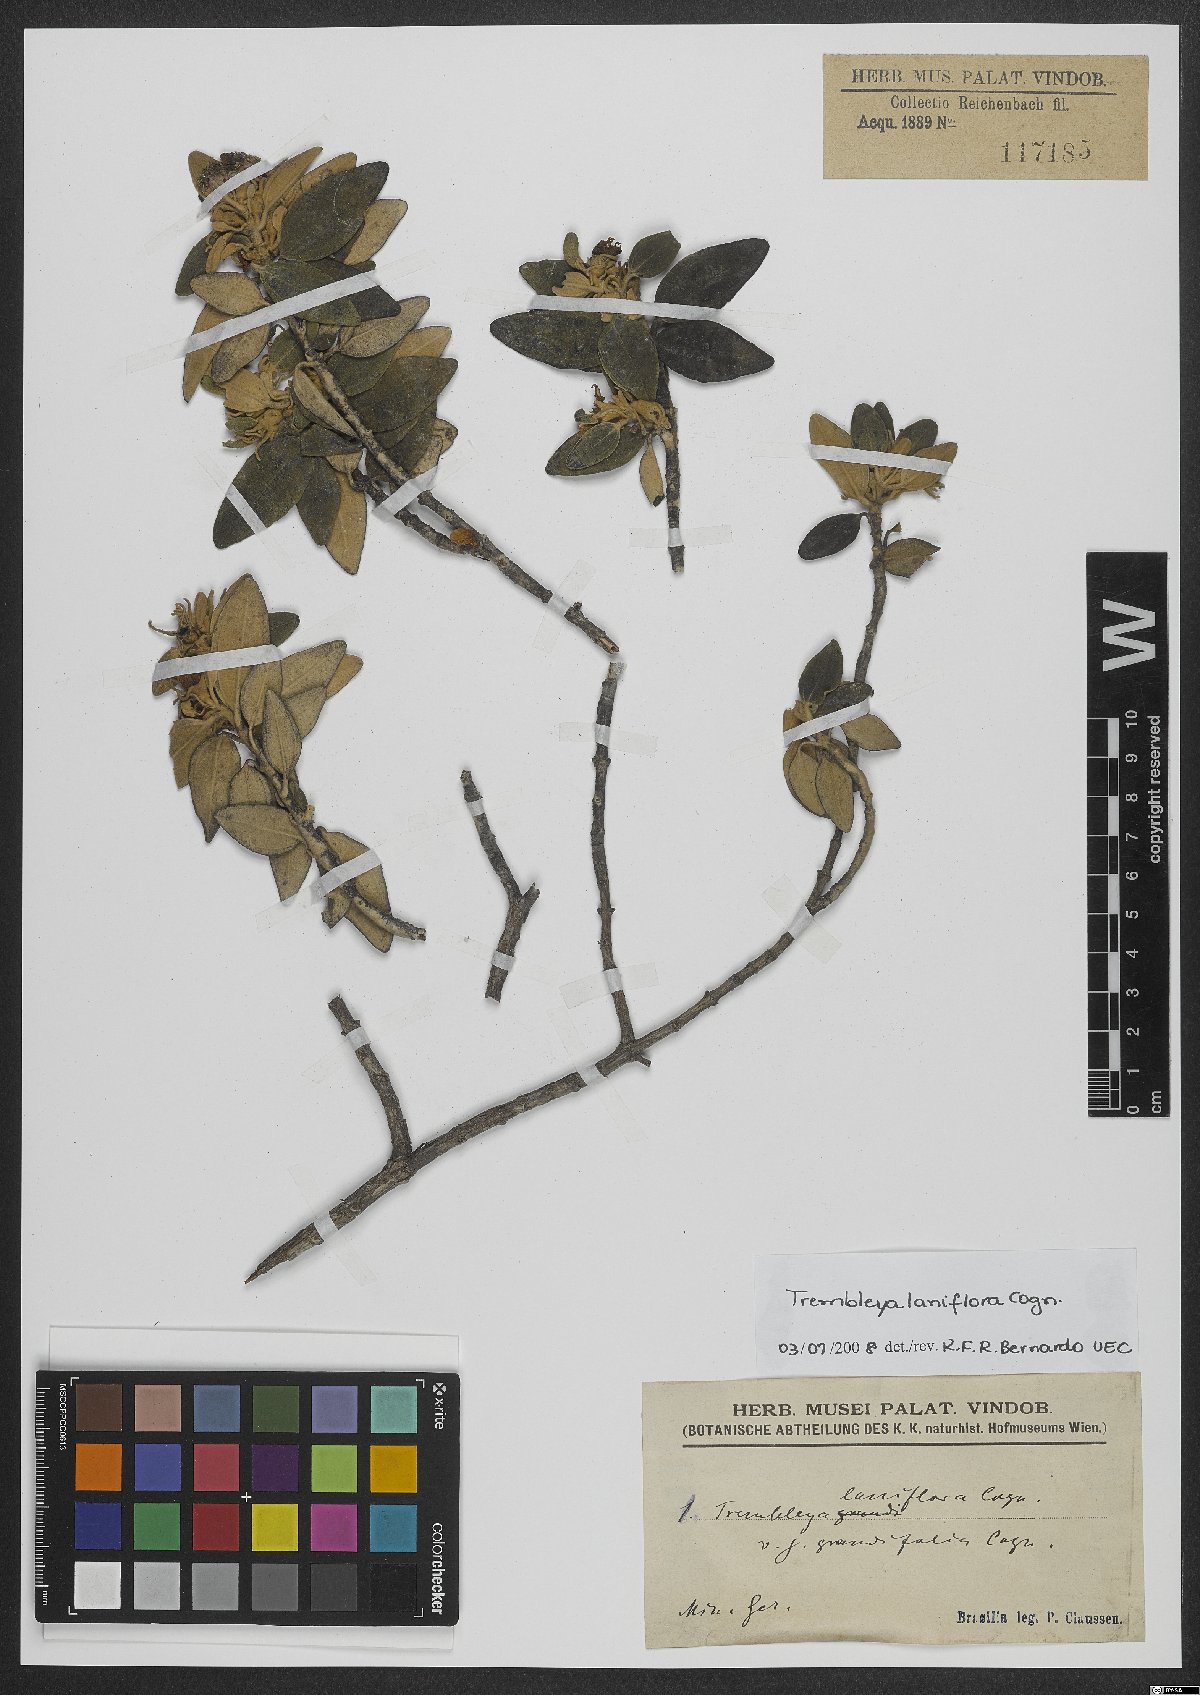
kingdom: Plantae
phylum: Tracheophyta
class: Magnoliopsida
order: Myrtales
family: Melastomataceae
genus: Microlicia
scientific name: Microlicia laniflora
